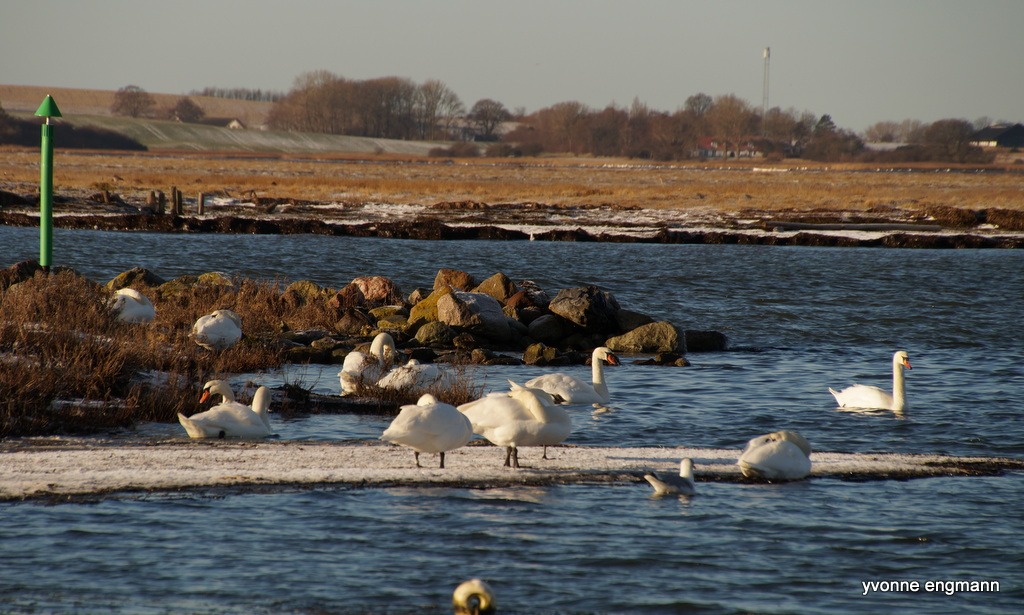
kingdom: Animalia
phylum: Chordata
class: Aves
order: Anseriformes
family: Anatidae
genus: Cygnus
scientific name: Cygnus olor
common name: Knopsvane
